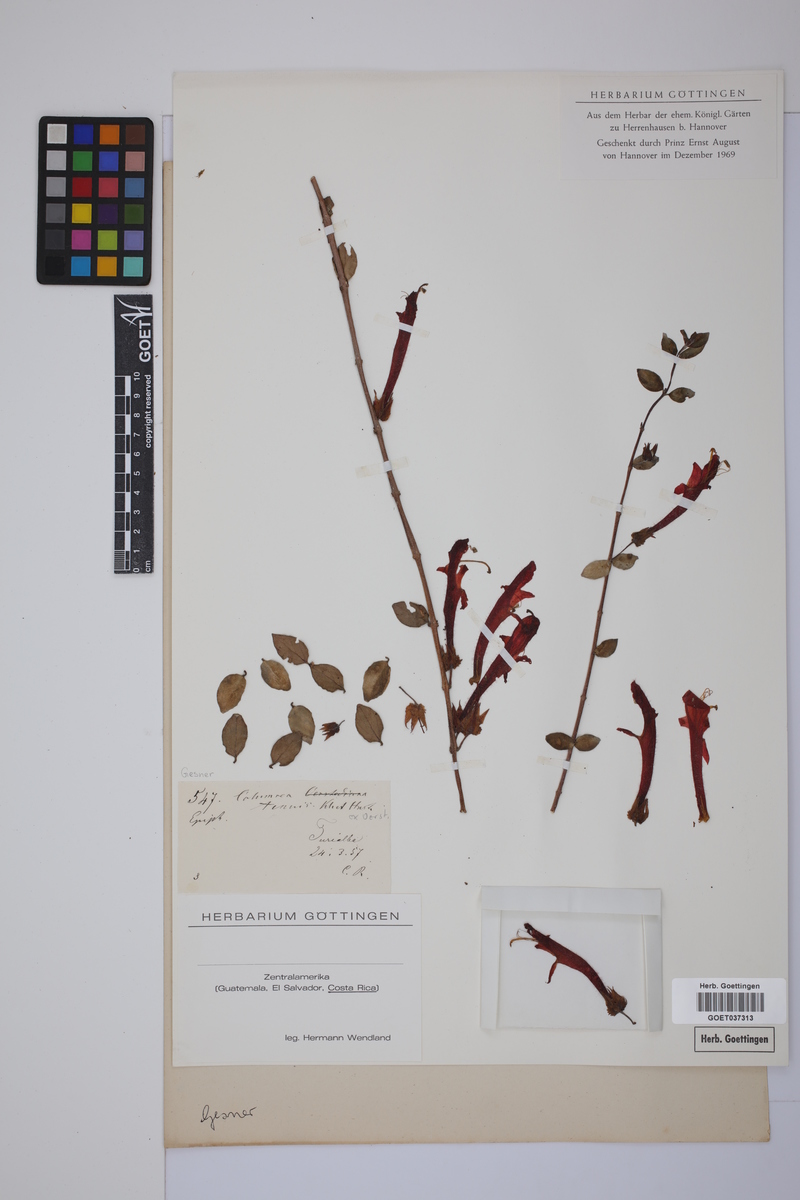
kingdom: Plantae
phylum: Tracheophyta
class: Magnoliopsida
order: Lamiales
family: Gesneriaceae
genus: Columnea
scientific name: Columnea tenuis
